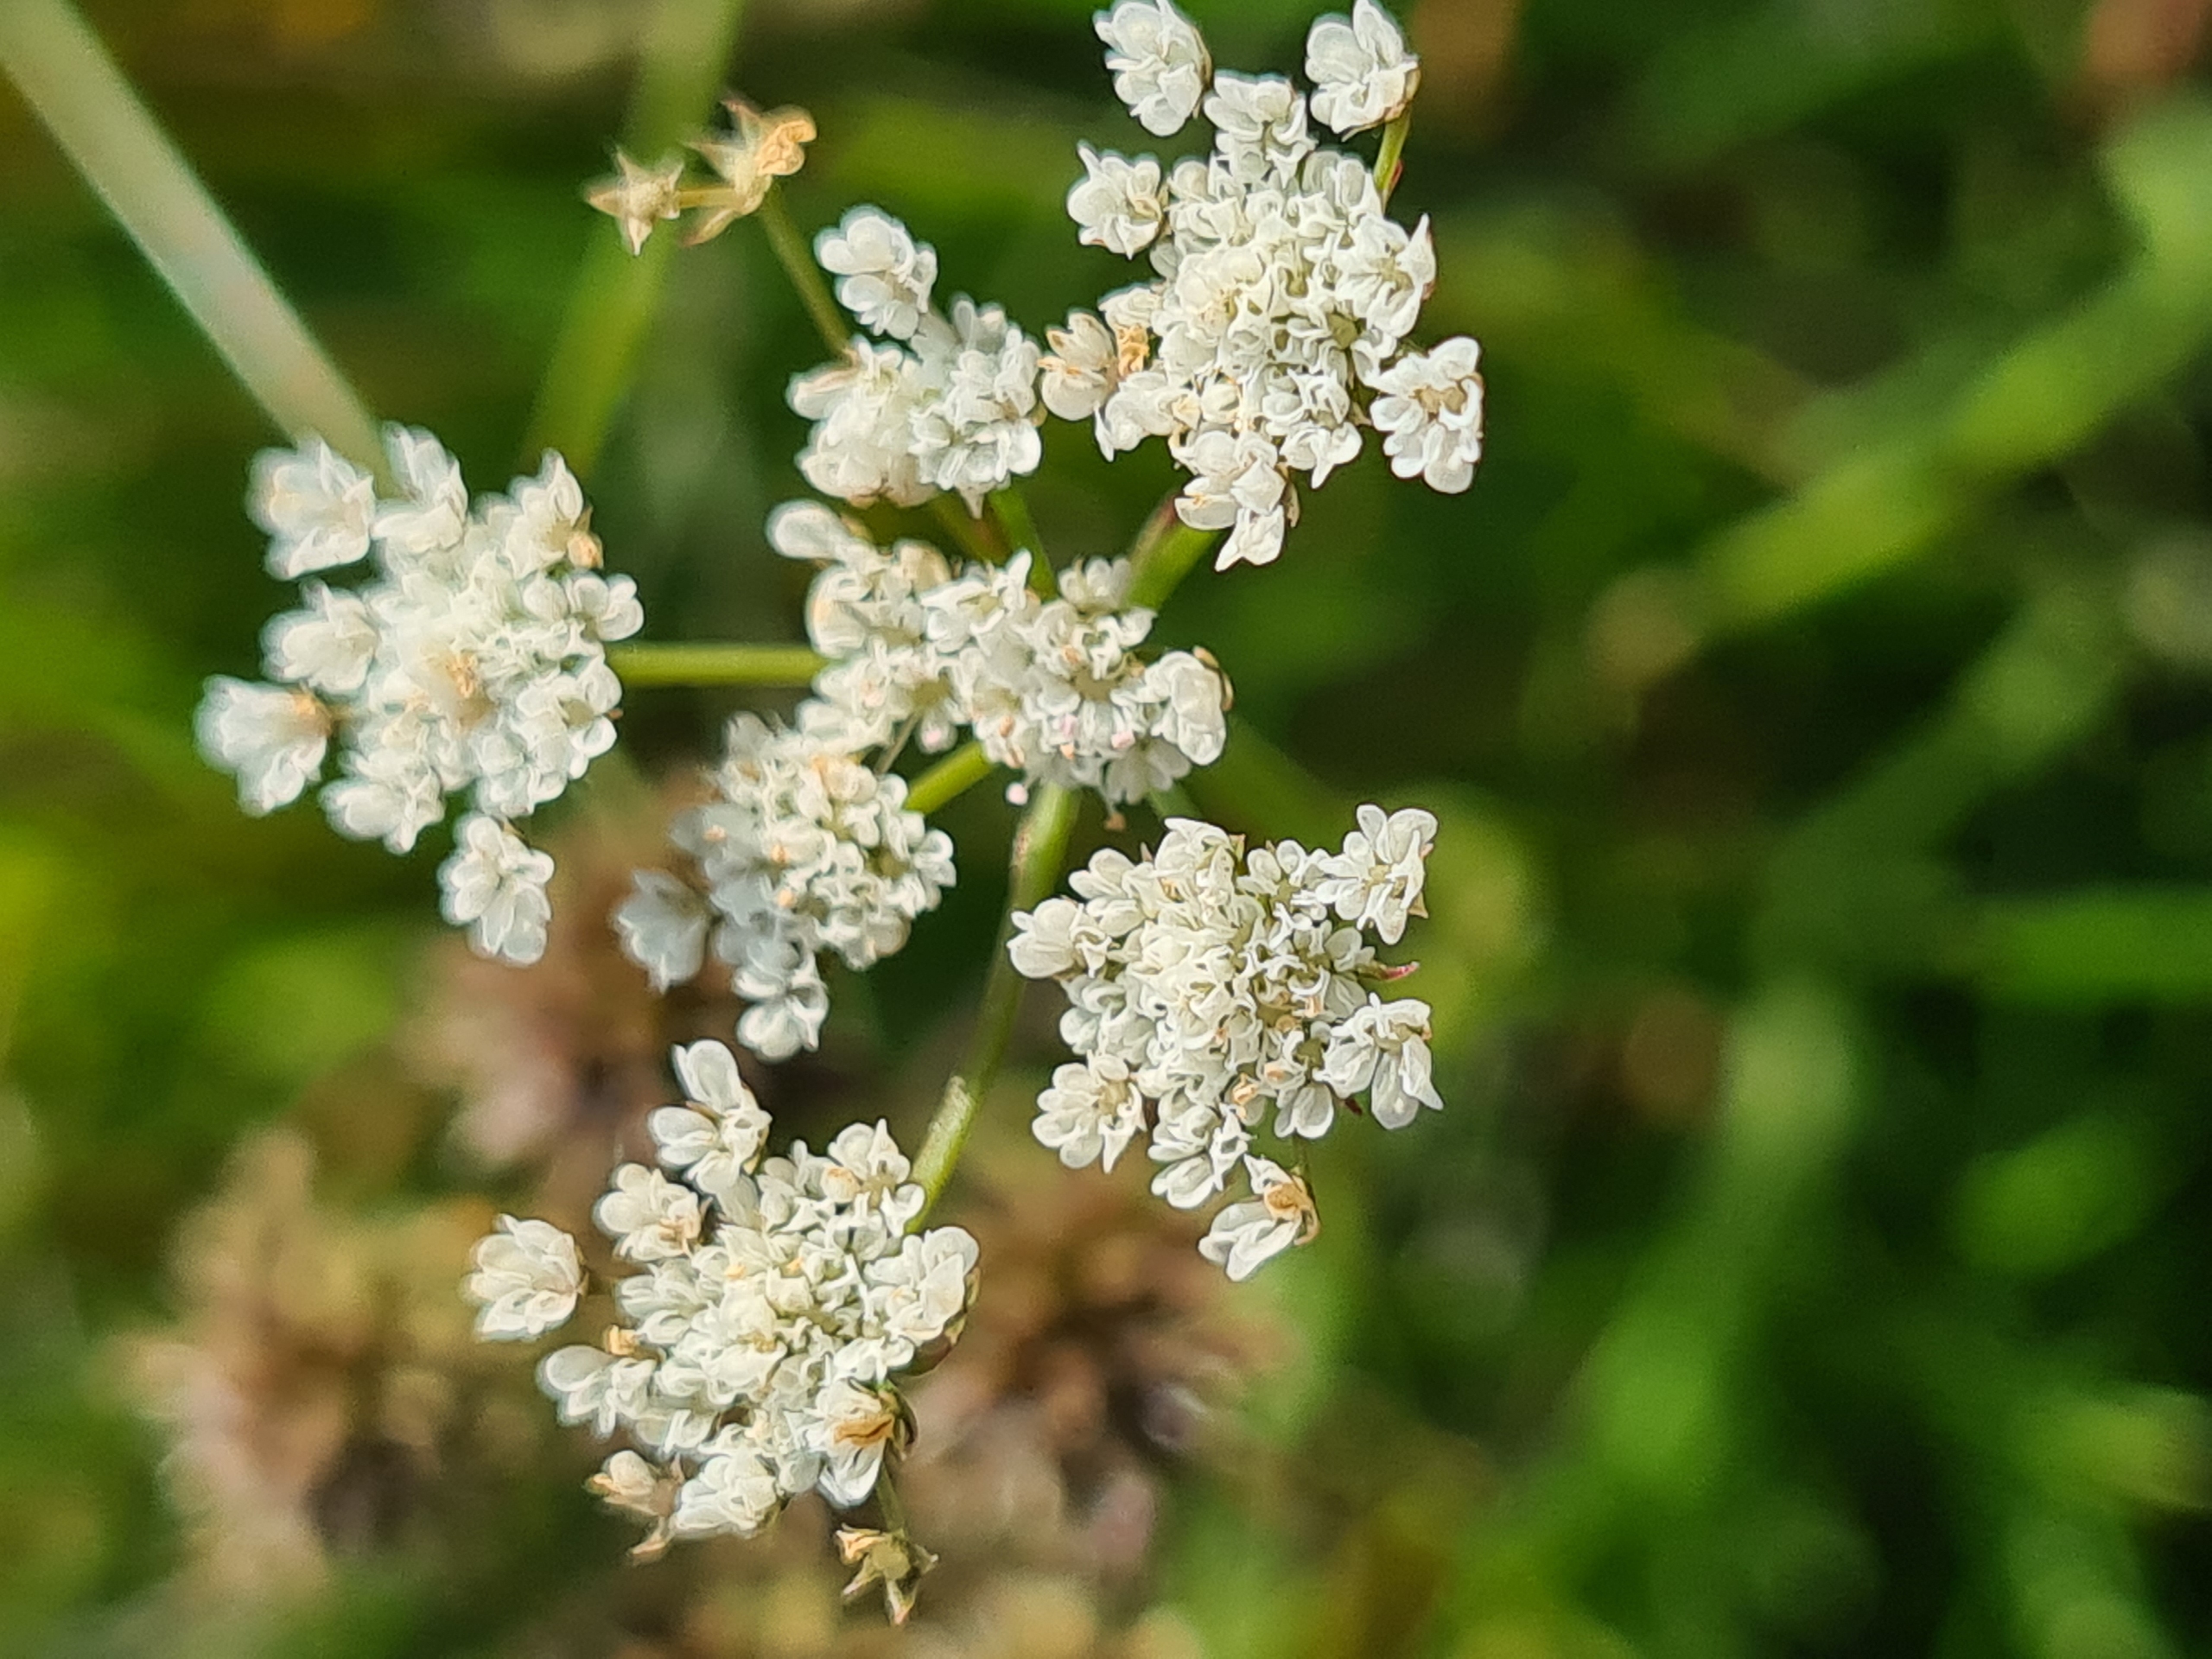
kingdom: Plantae
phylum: Tracheophyta
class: Magnoliopsida
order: Apiales
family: Apiaceae
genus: Oenanthe
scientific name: Oenanthe lachenalii
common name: Eng-klaseskærm
